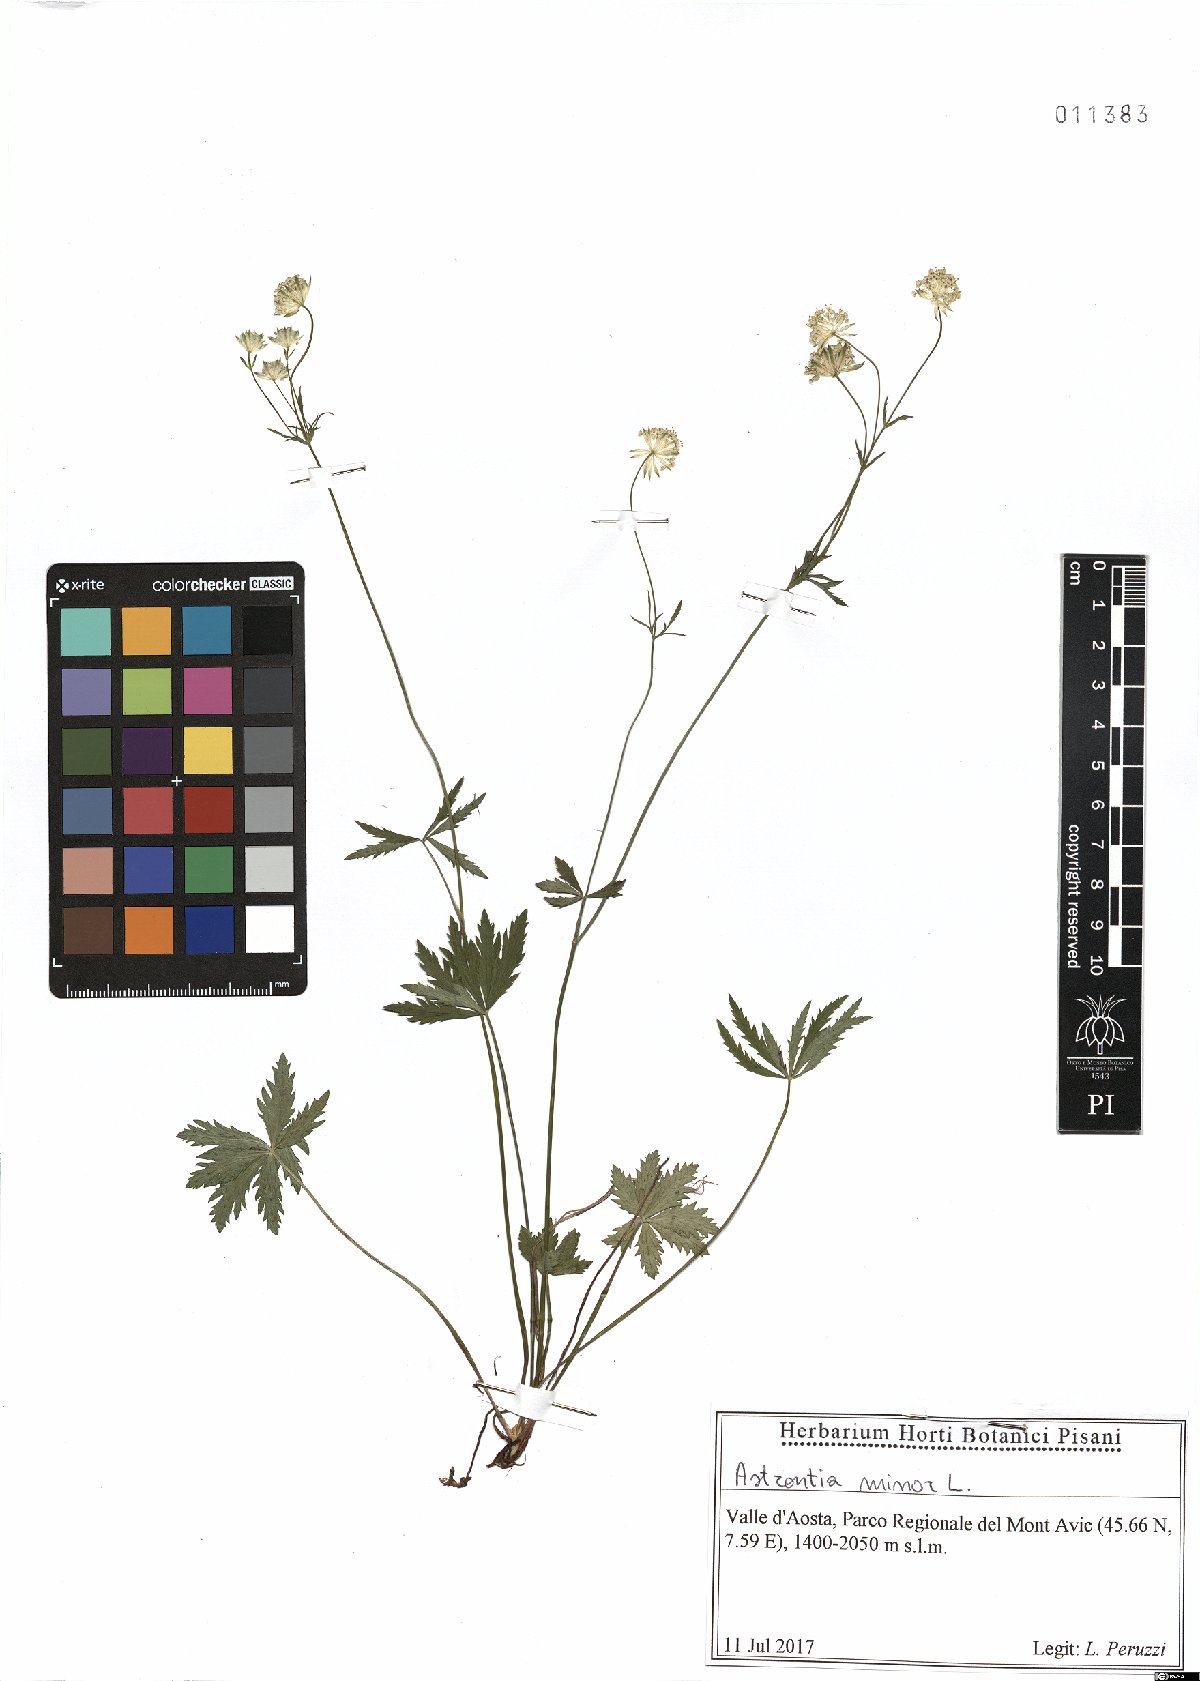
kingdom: Plantae
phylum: Tracheophyta
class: Magnoliopsida
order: Apiales
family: Apiaceae
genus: Astrantia
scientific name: Astrantia minor
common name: Lesser masterwort
